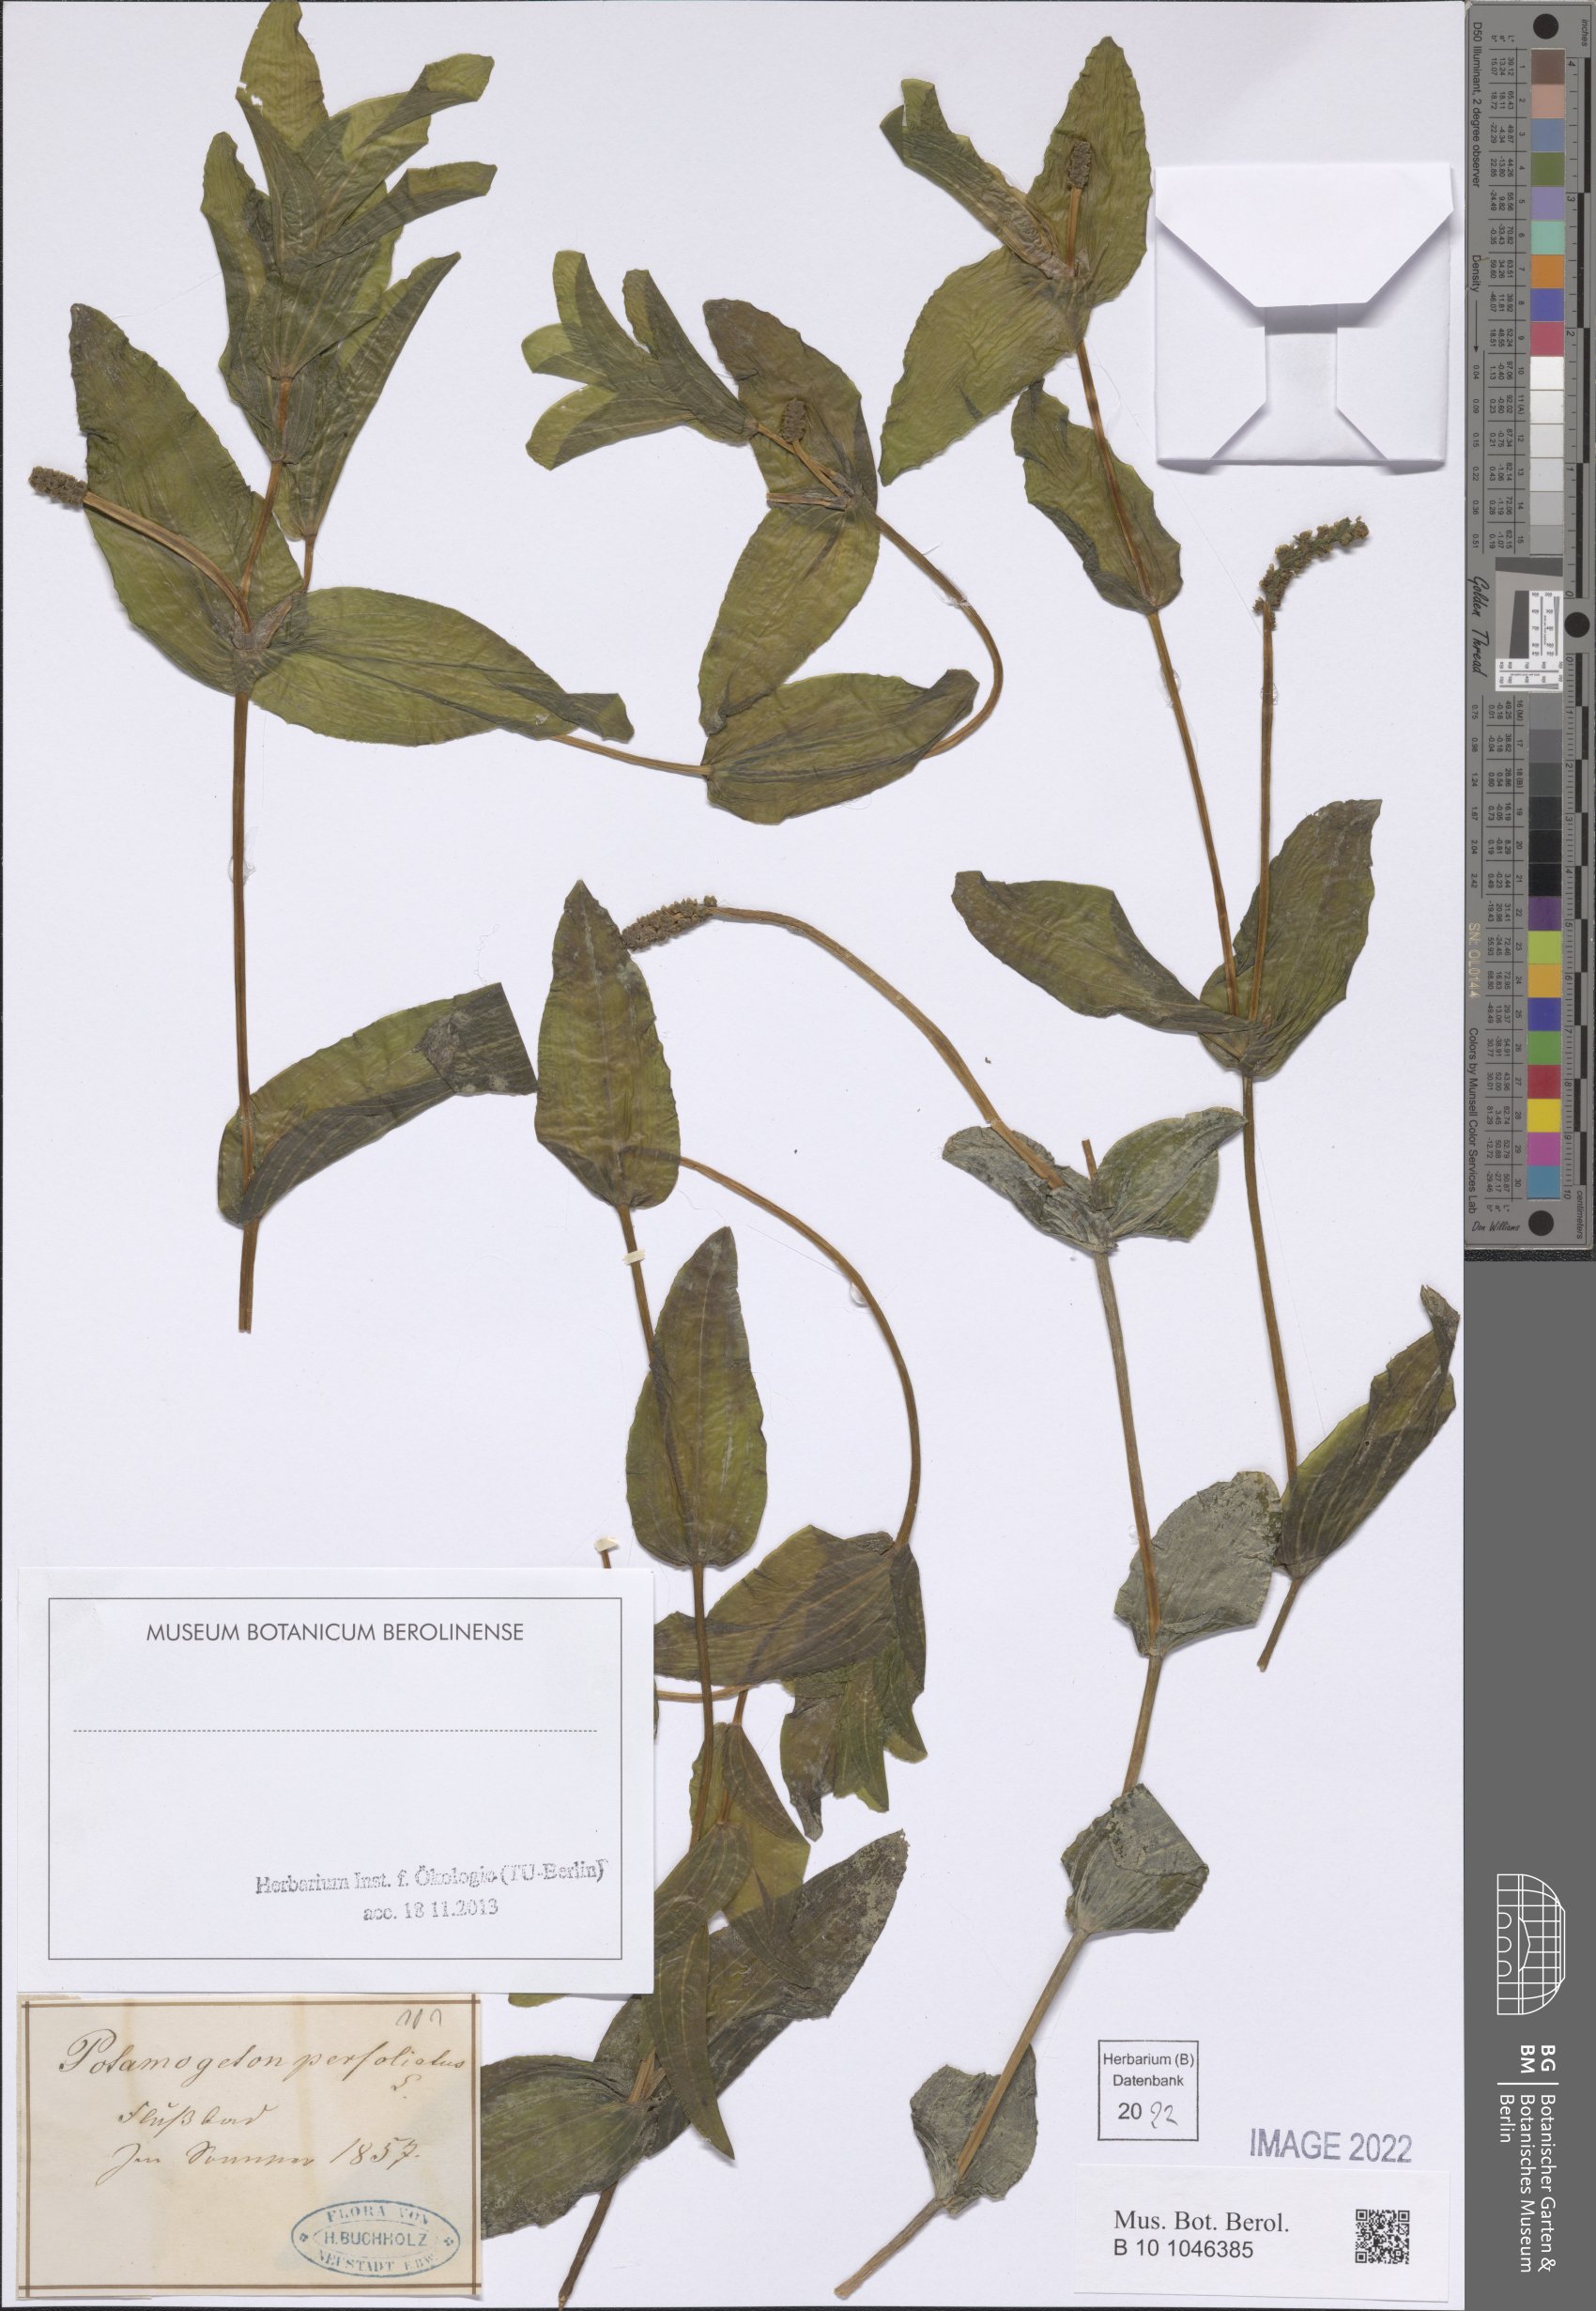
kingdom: Plantae
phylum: Tracheophyta
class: Liliopsida
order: Alismatales
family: Potamogetonaceae
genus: Potamogeton
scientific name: Potamogeton perfoliatus
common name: Perfoliate pondweed
